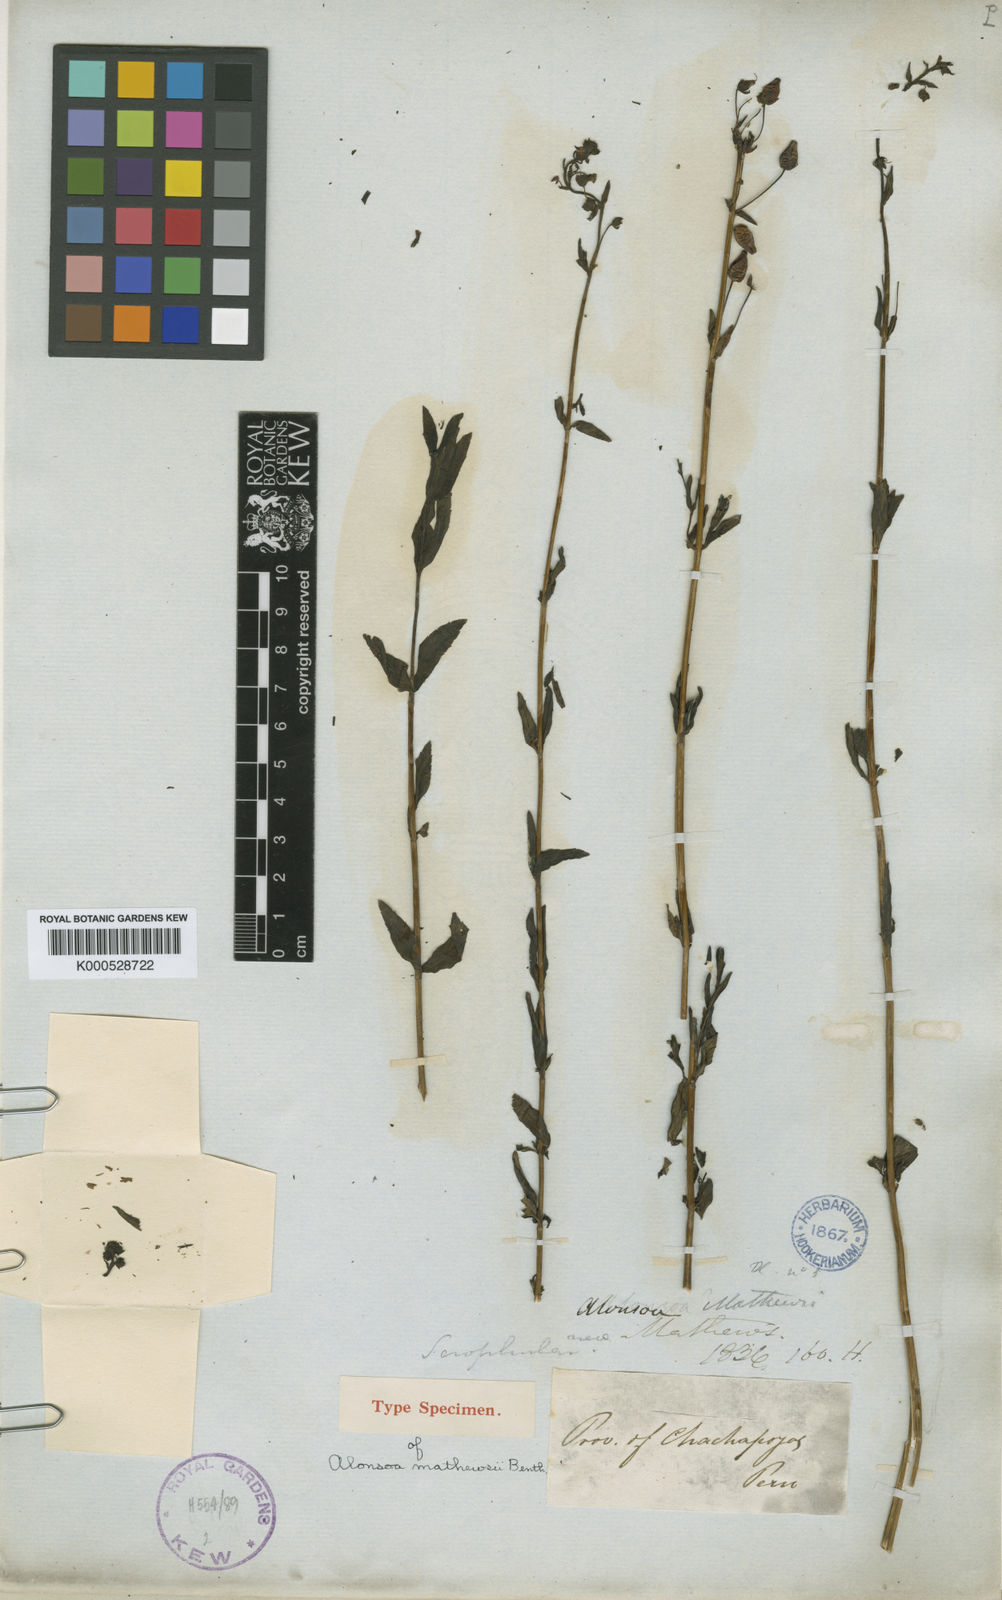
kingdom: Plantae
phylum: Tracheophyta
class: Magnoliopsida
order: Lamiales
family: Scrophulariaceae
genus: Alonsoa
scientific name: Alonsoa minor
